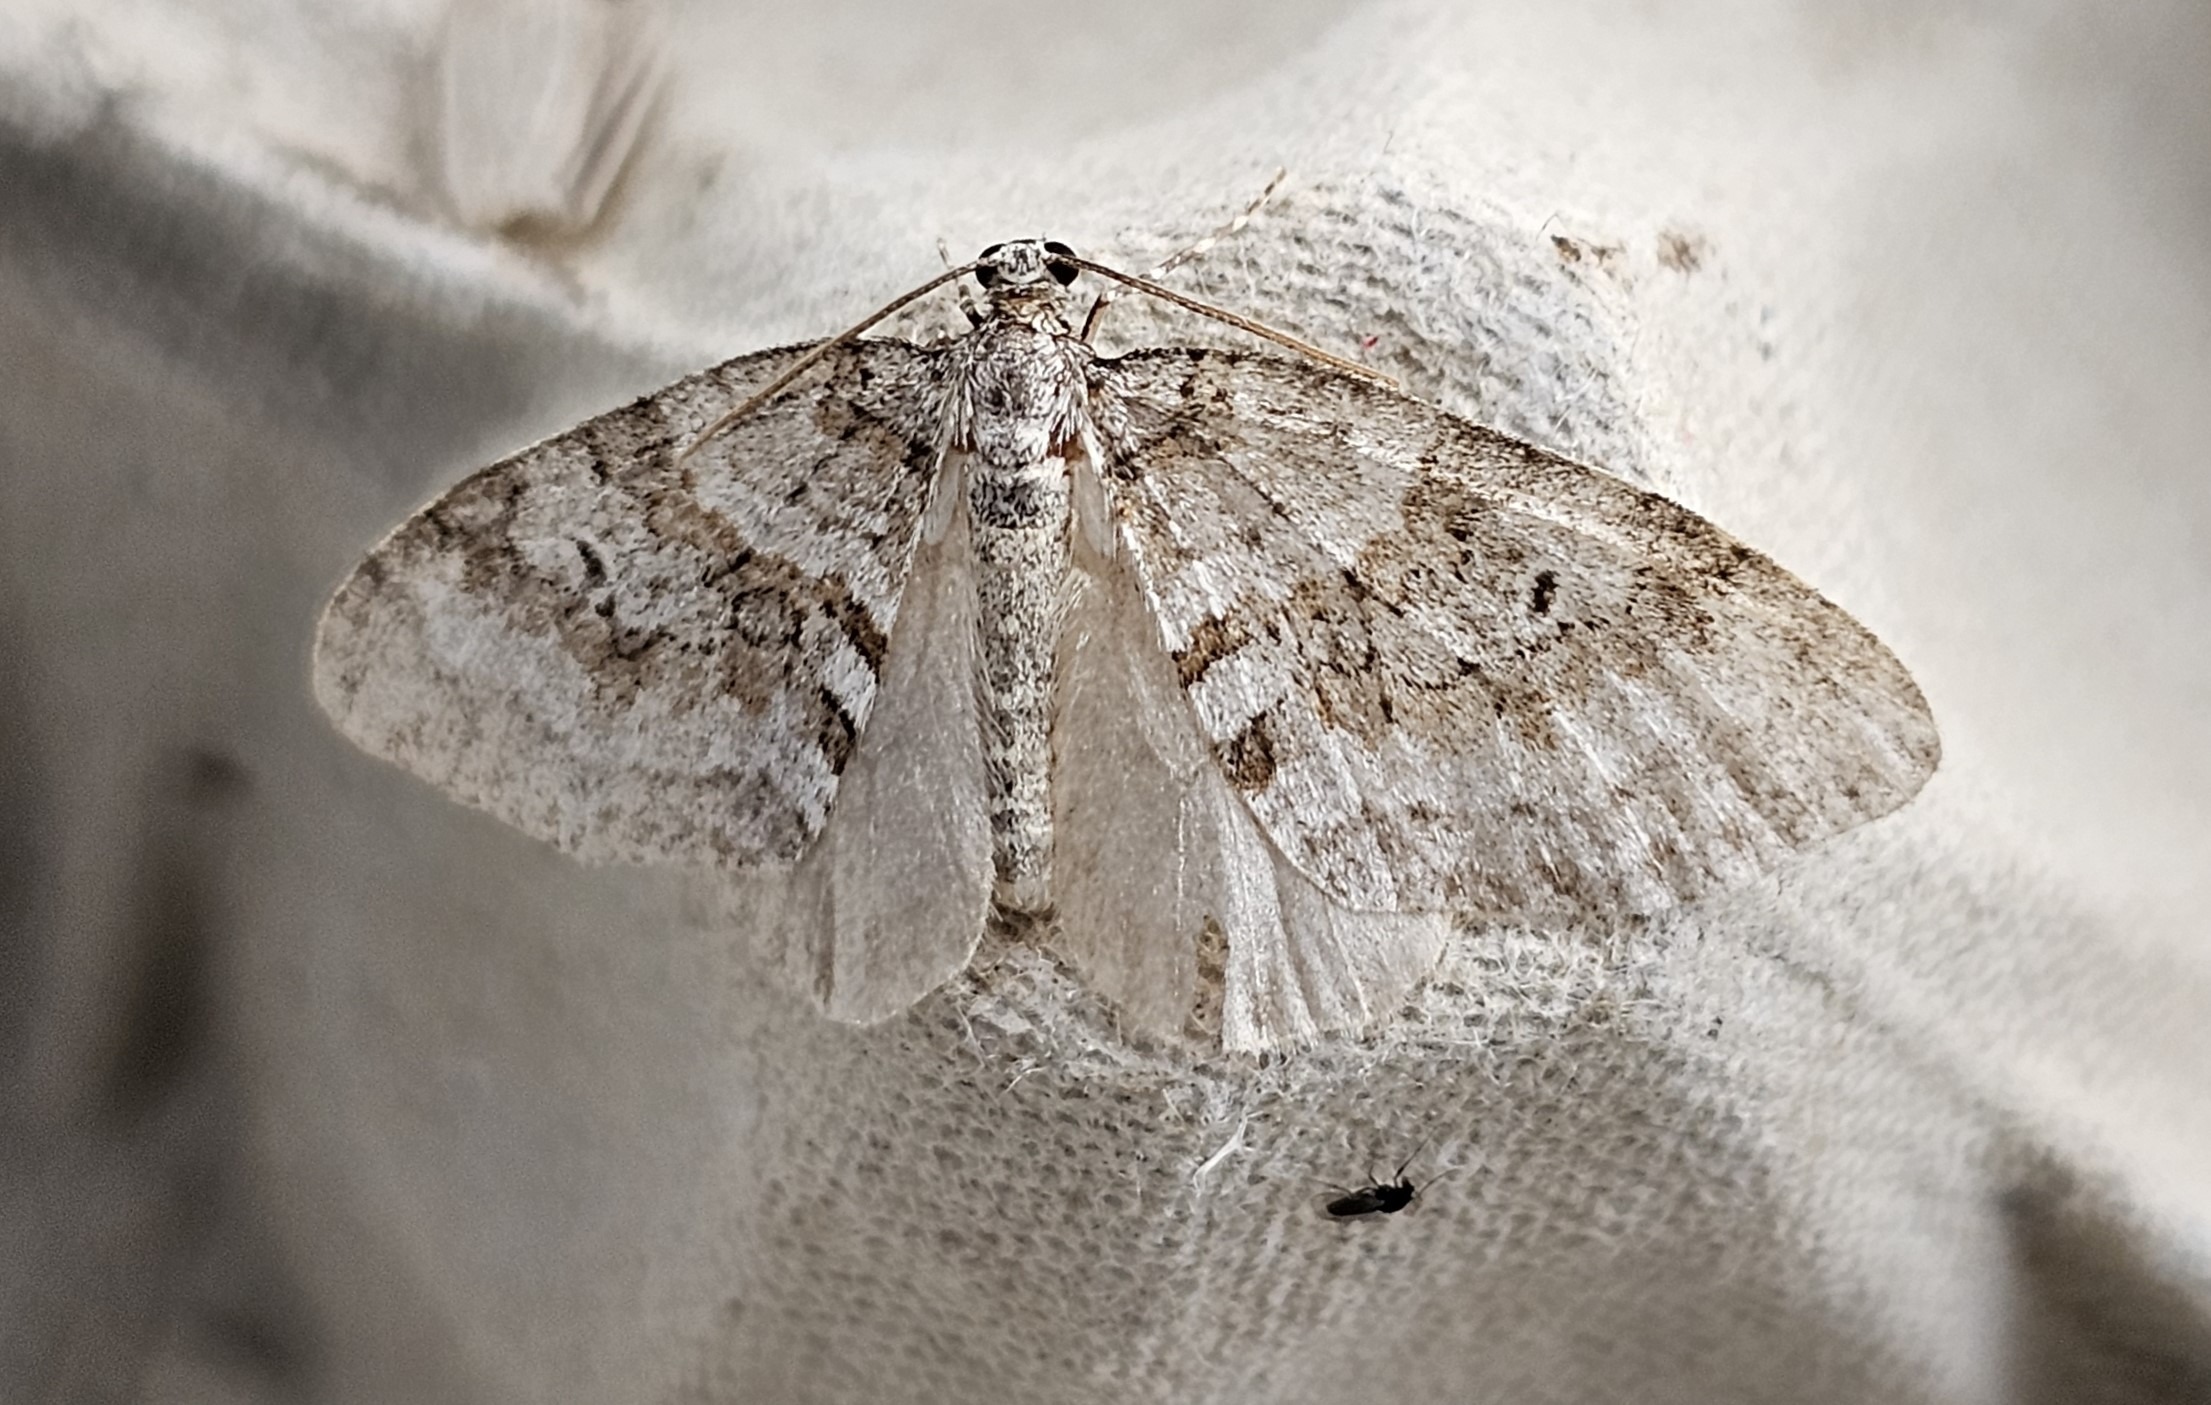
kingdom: Animalia
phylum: Arthropoda
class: Insecta
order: Lepidoptera
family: Geometridae
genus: Nothocasis
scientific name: Nothocasis sertata
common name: Ahornmåler
